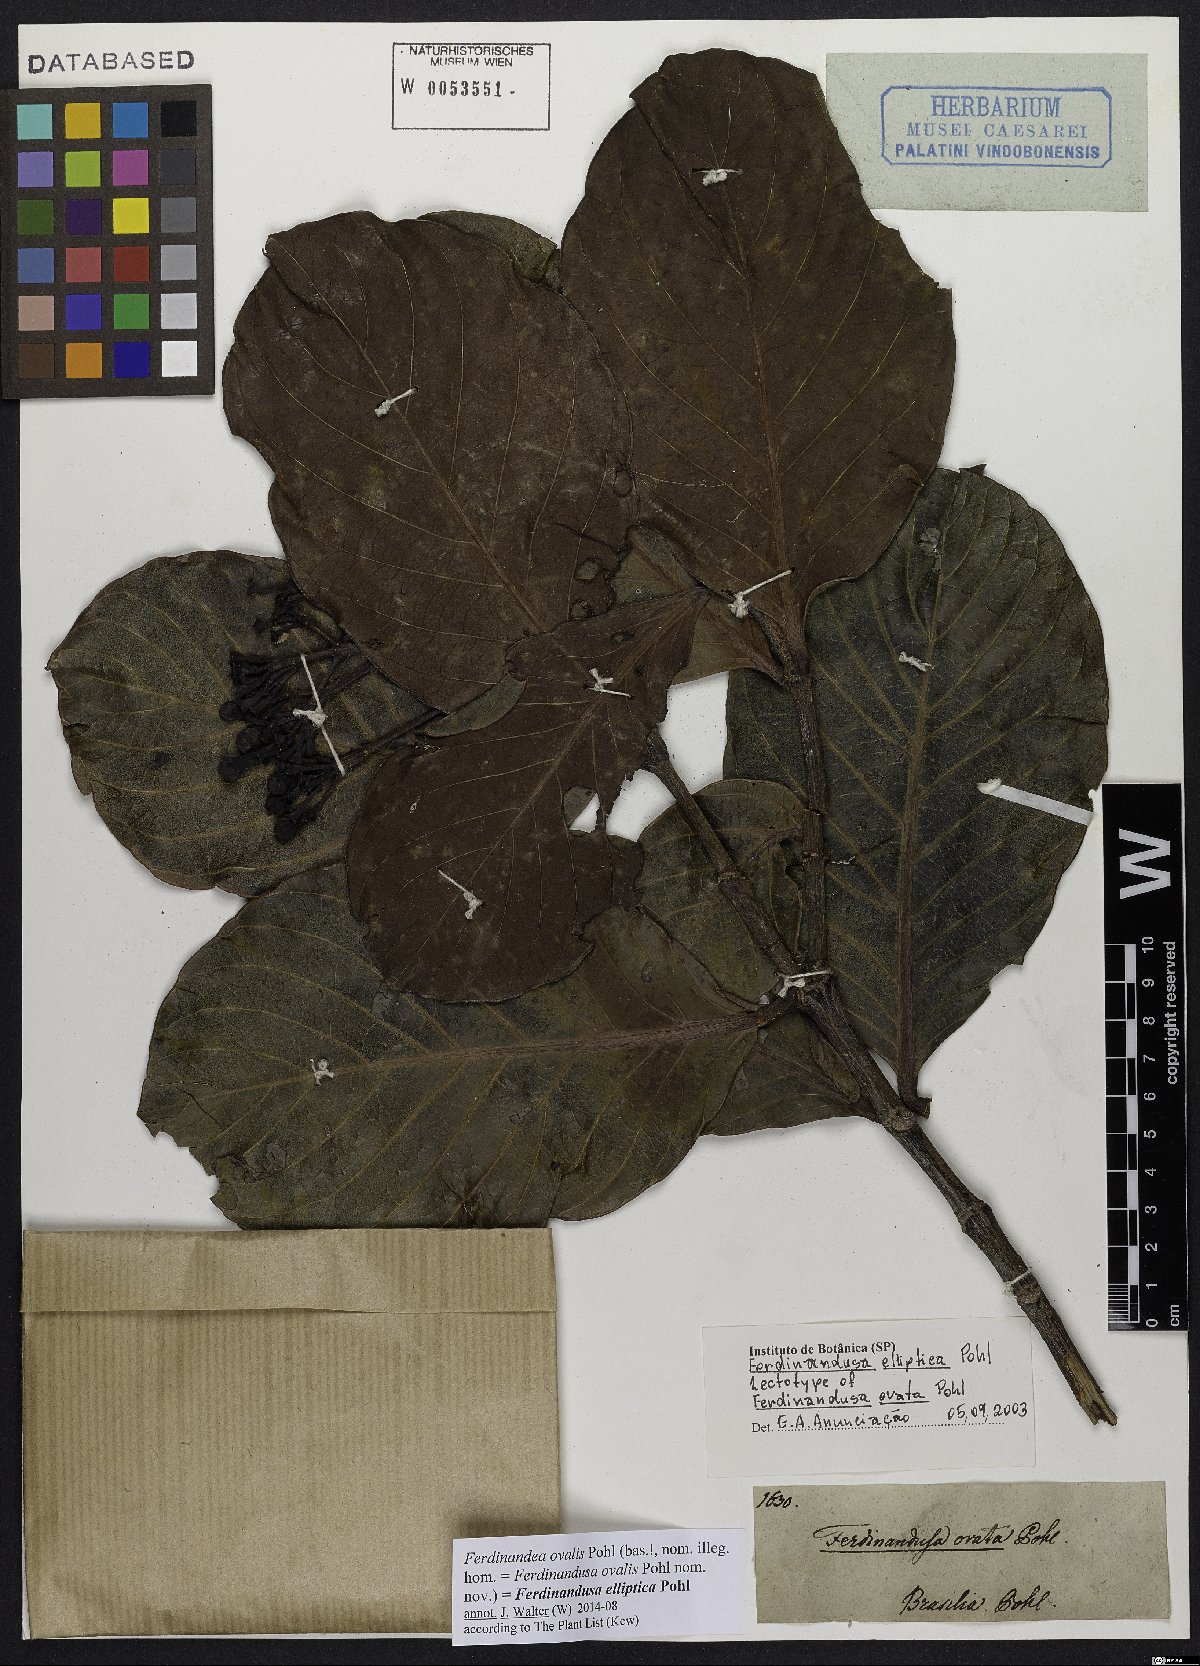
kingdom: Plantae
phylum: Tracheophyta
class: Magnoliopsida
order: Gentianales
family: Rubiaceae
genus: Ferdinandusa
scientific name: Ferdinandusa elliptica
